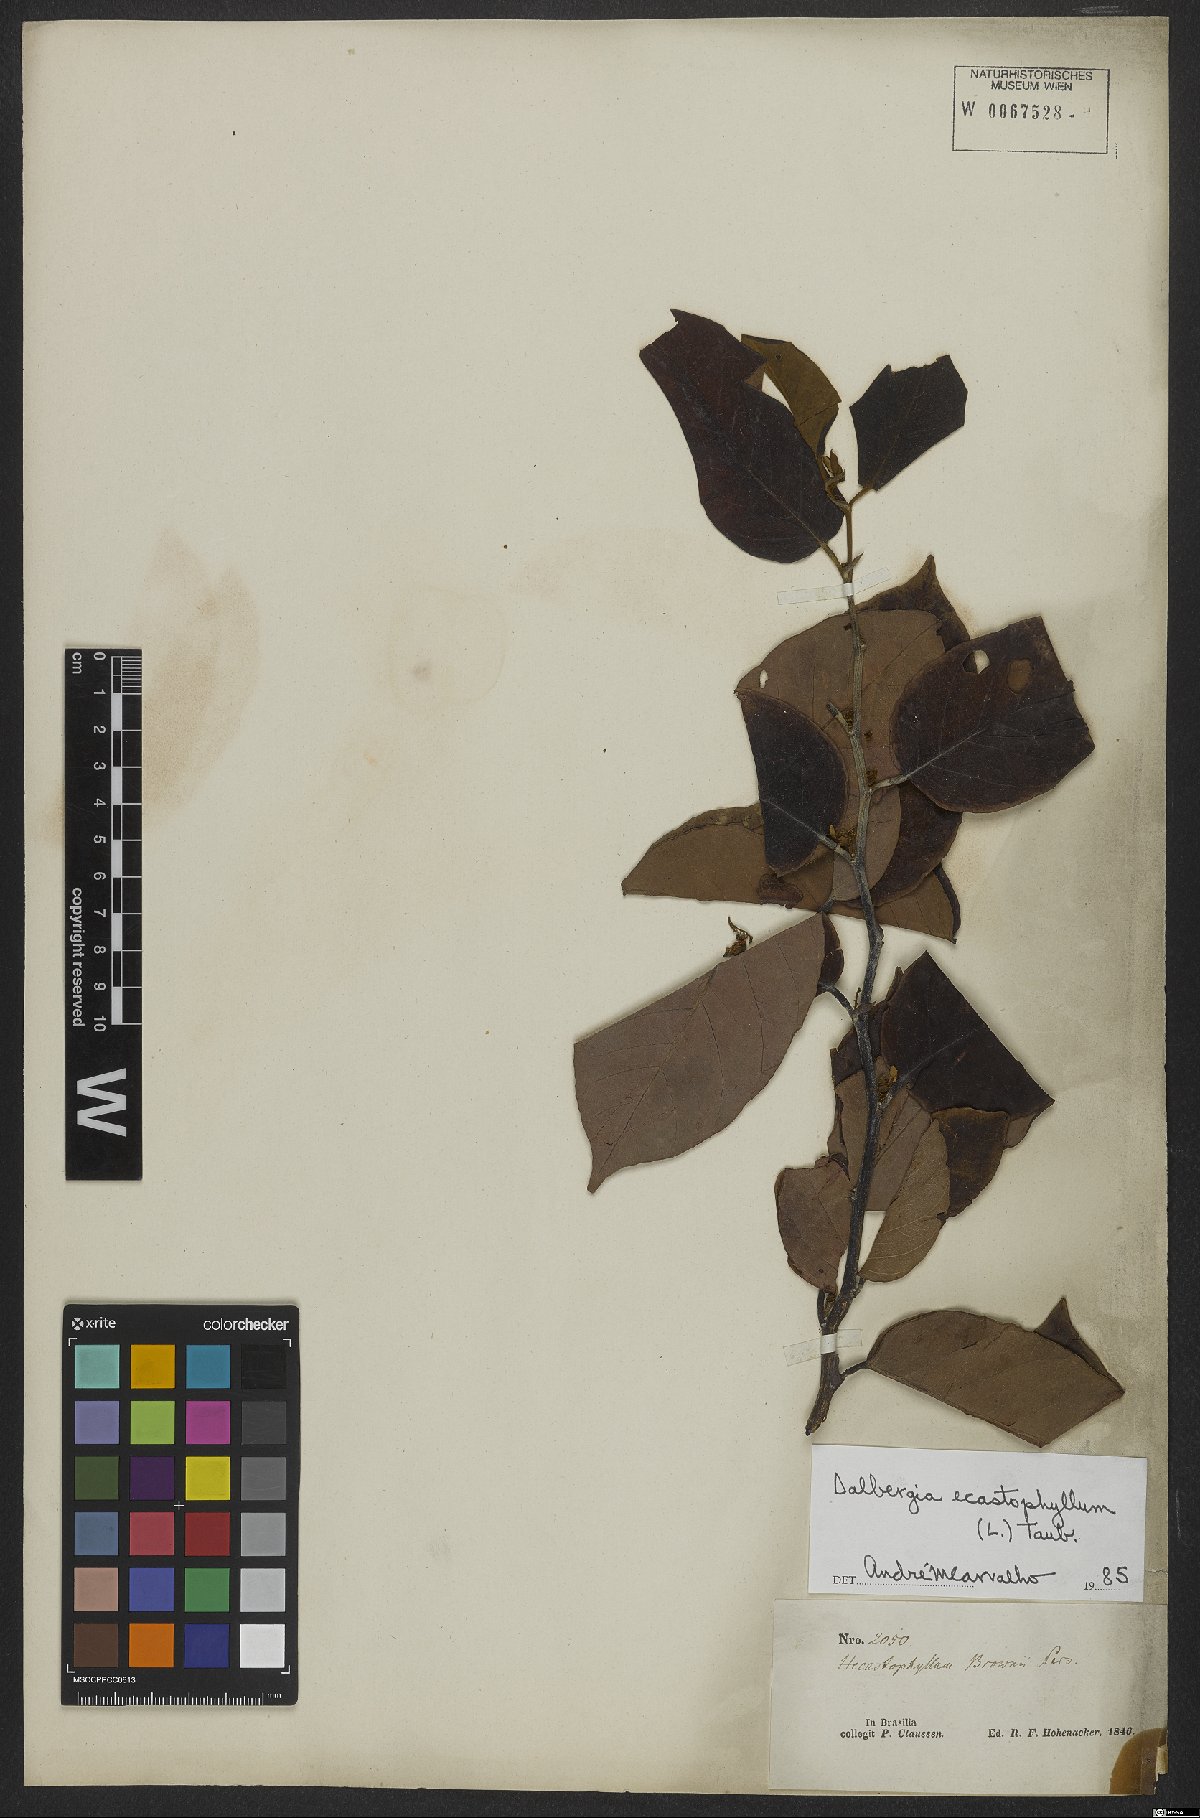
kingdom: Plantae
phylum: Tracheophyta
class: Magnoliopsida
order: Fabales
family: Fabaceae
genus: Dalbergia
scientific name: Dalbergia ecastaphyllum
